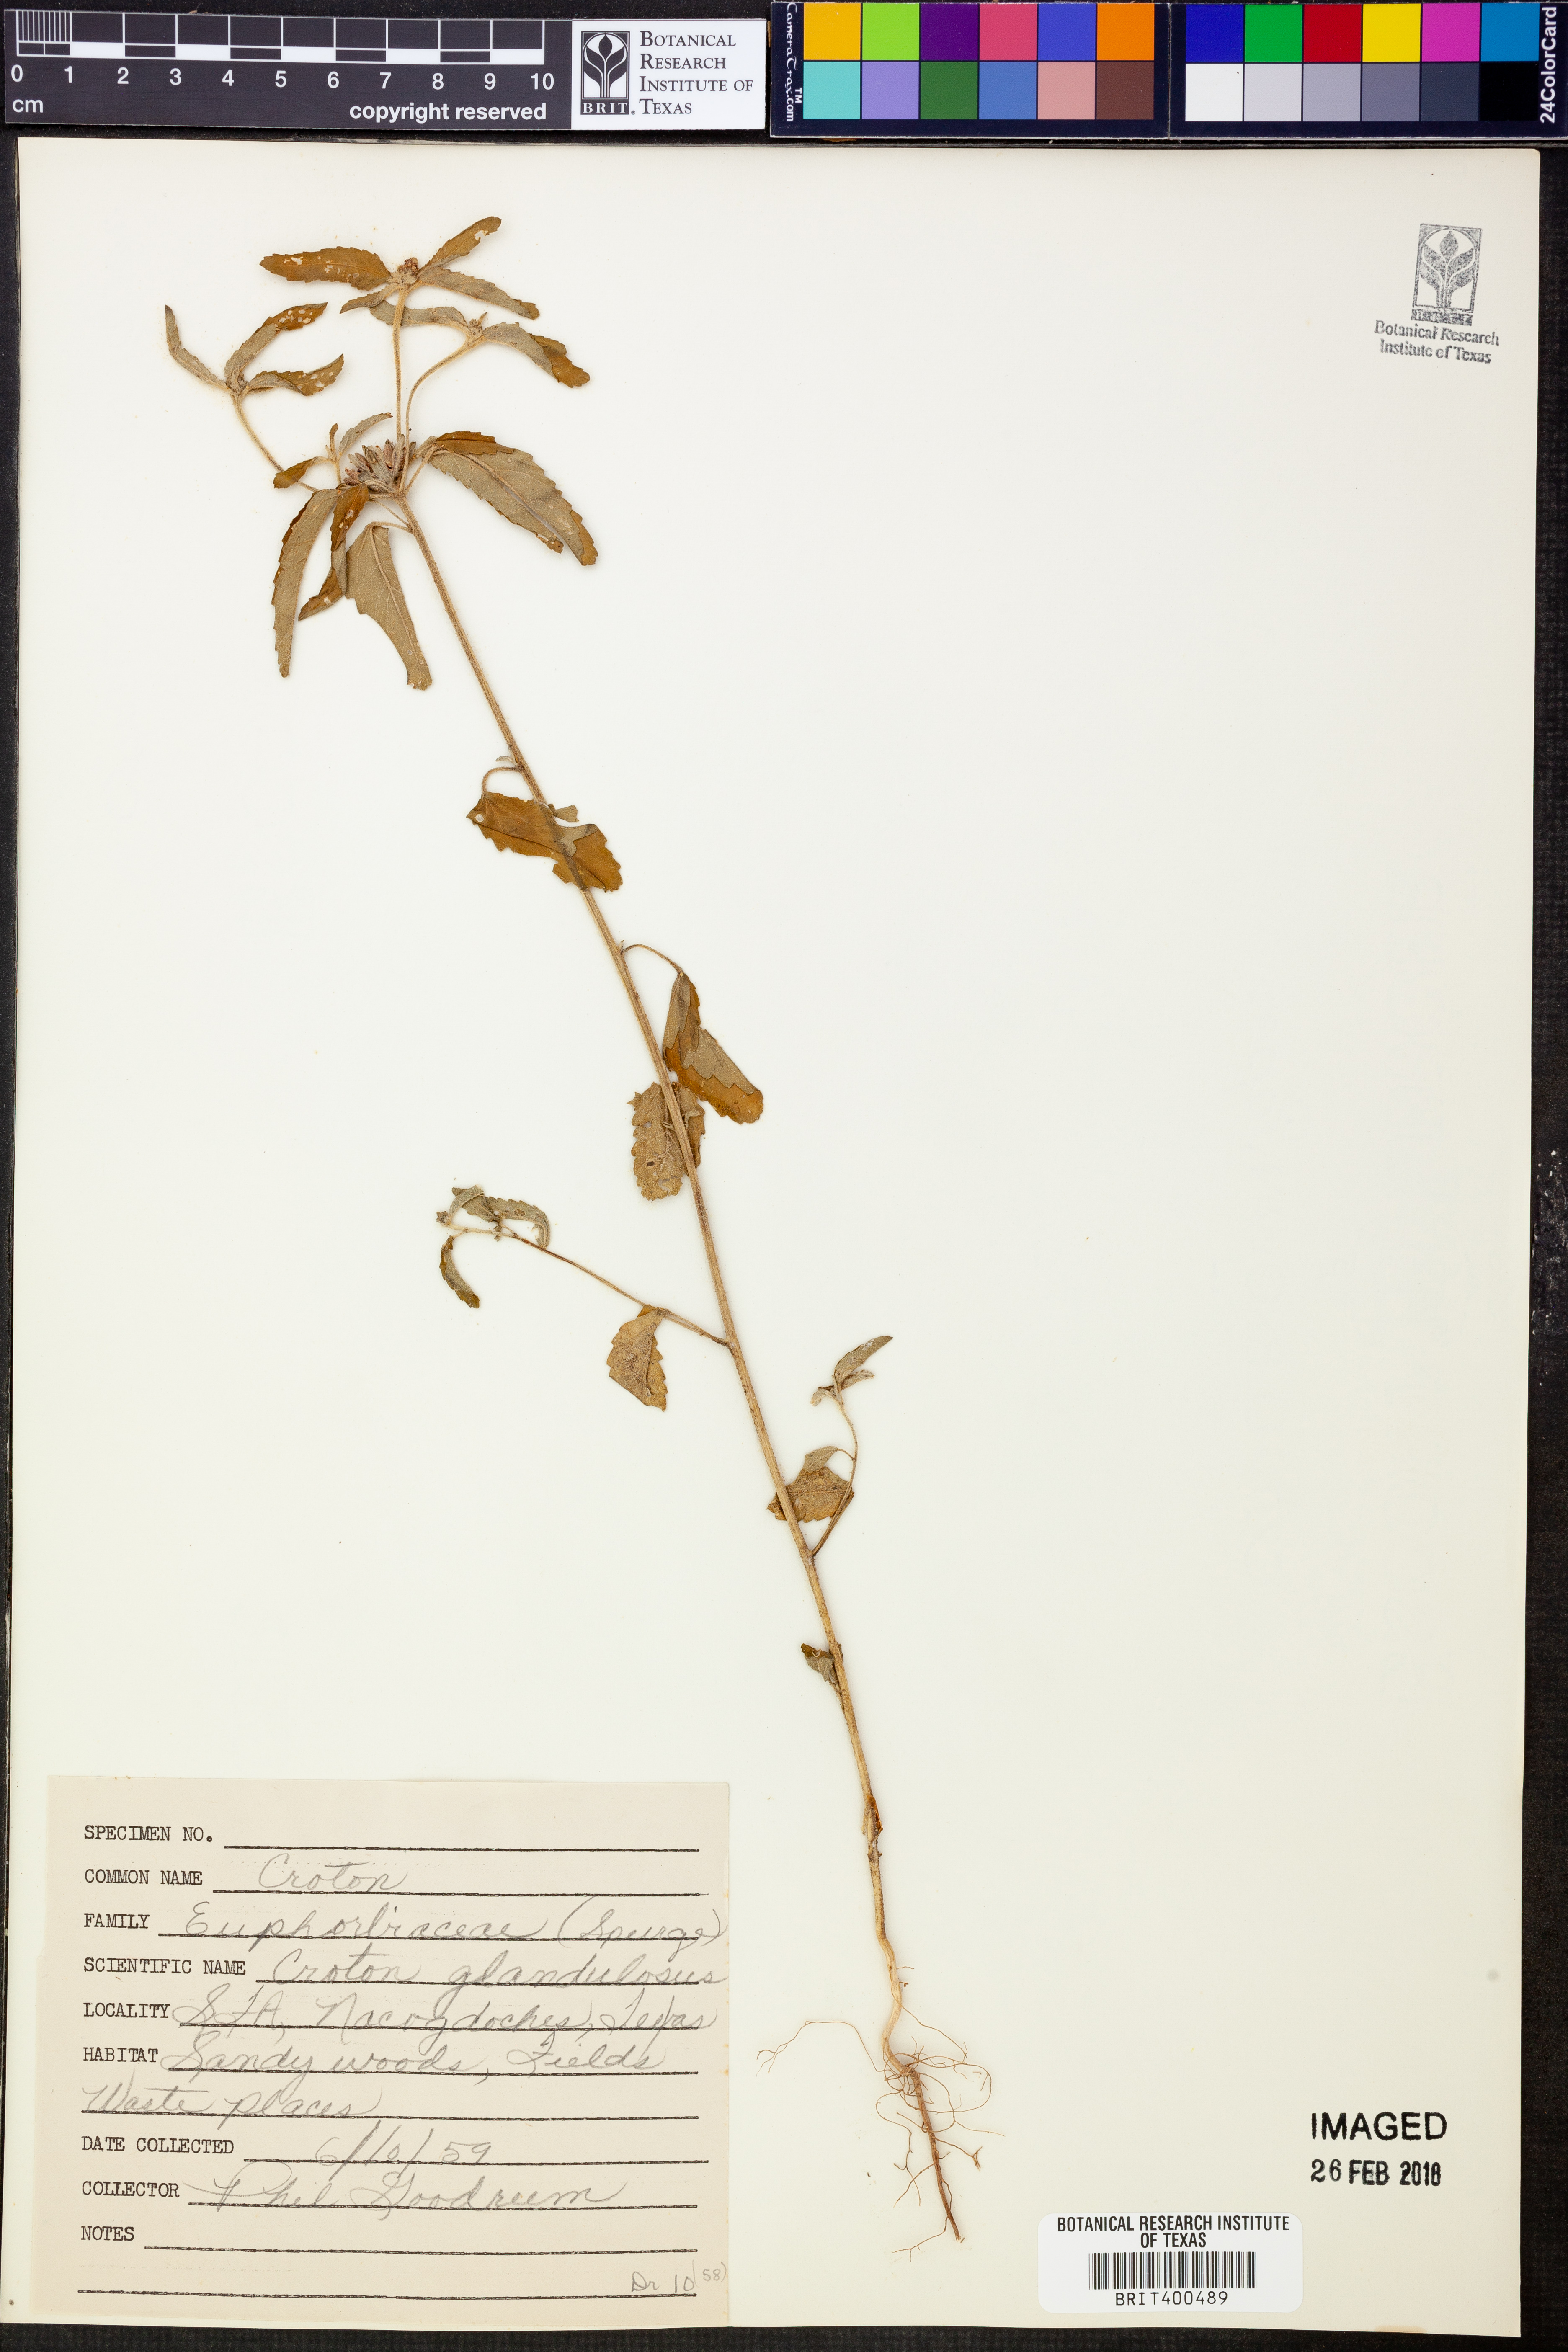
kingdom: Plantae
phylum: Tracheophyta
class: Magnoliopsida
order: Malpighiales
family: Euphorbiaceae
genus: Croton
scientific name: Croton glandulosus
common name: Tropic croton
